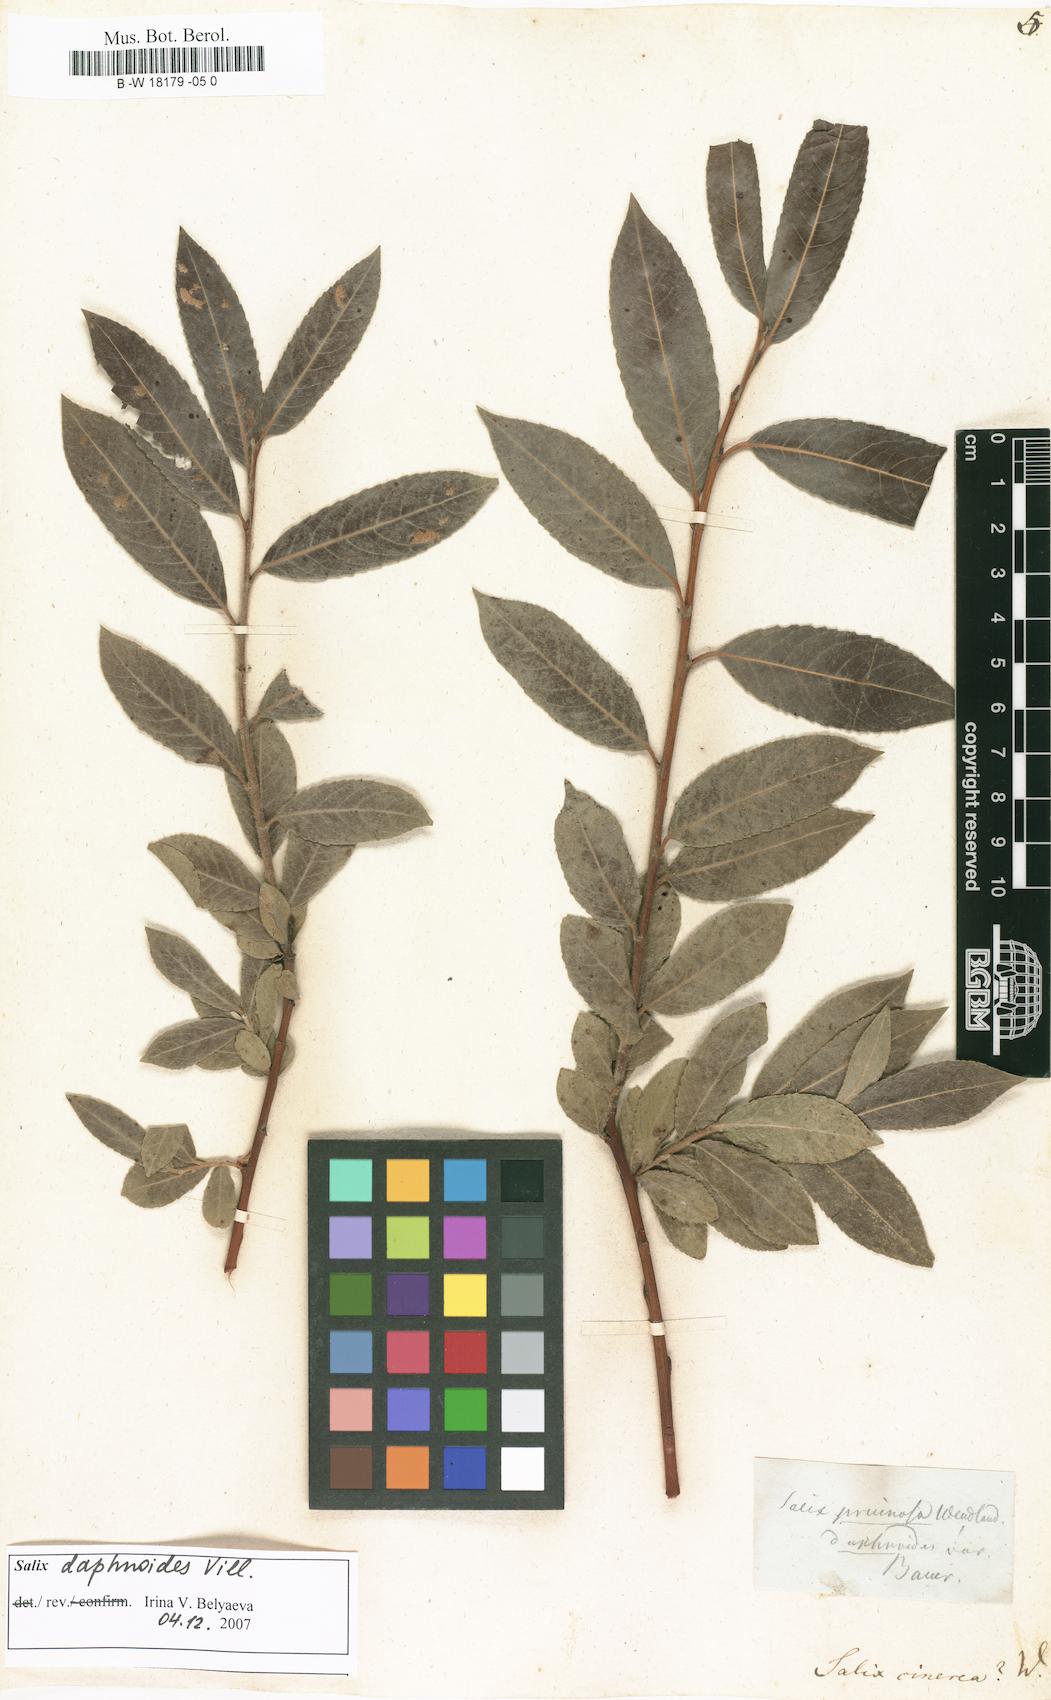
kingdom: Plantae
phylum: Tracheophyta
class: Magnoliopsida
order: Malpighiales
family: Salicaceae
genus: Salix
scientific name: Salix cinerea
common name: Common sallow
